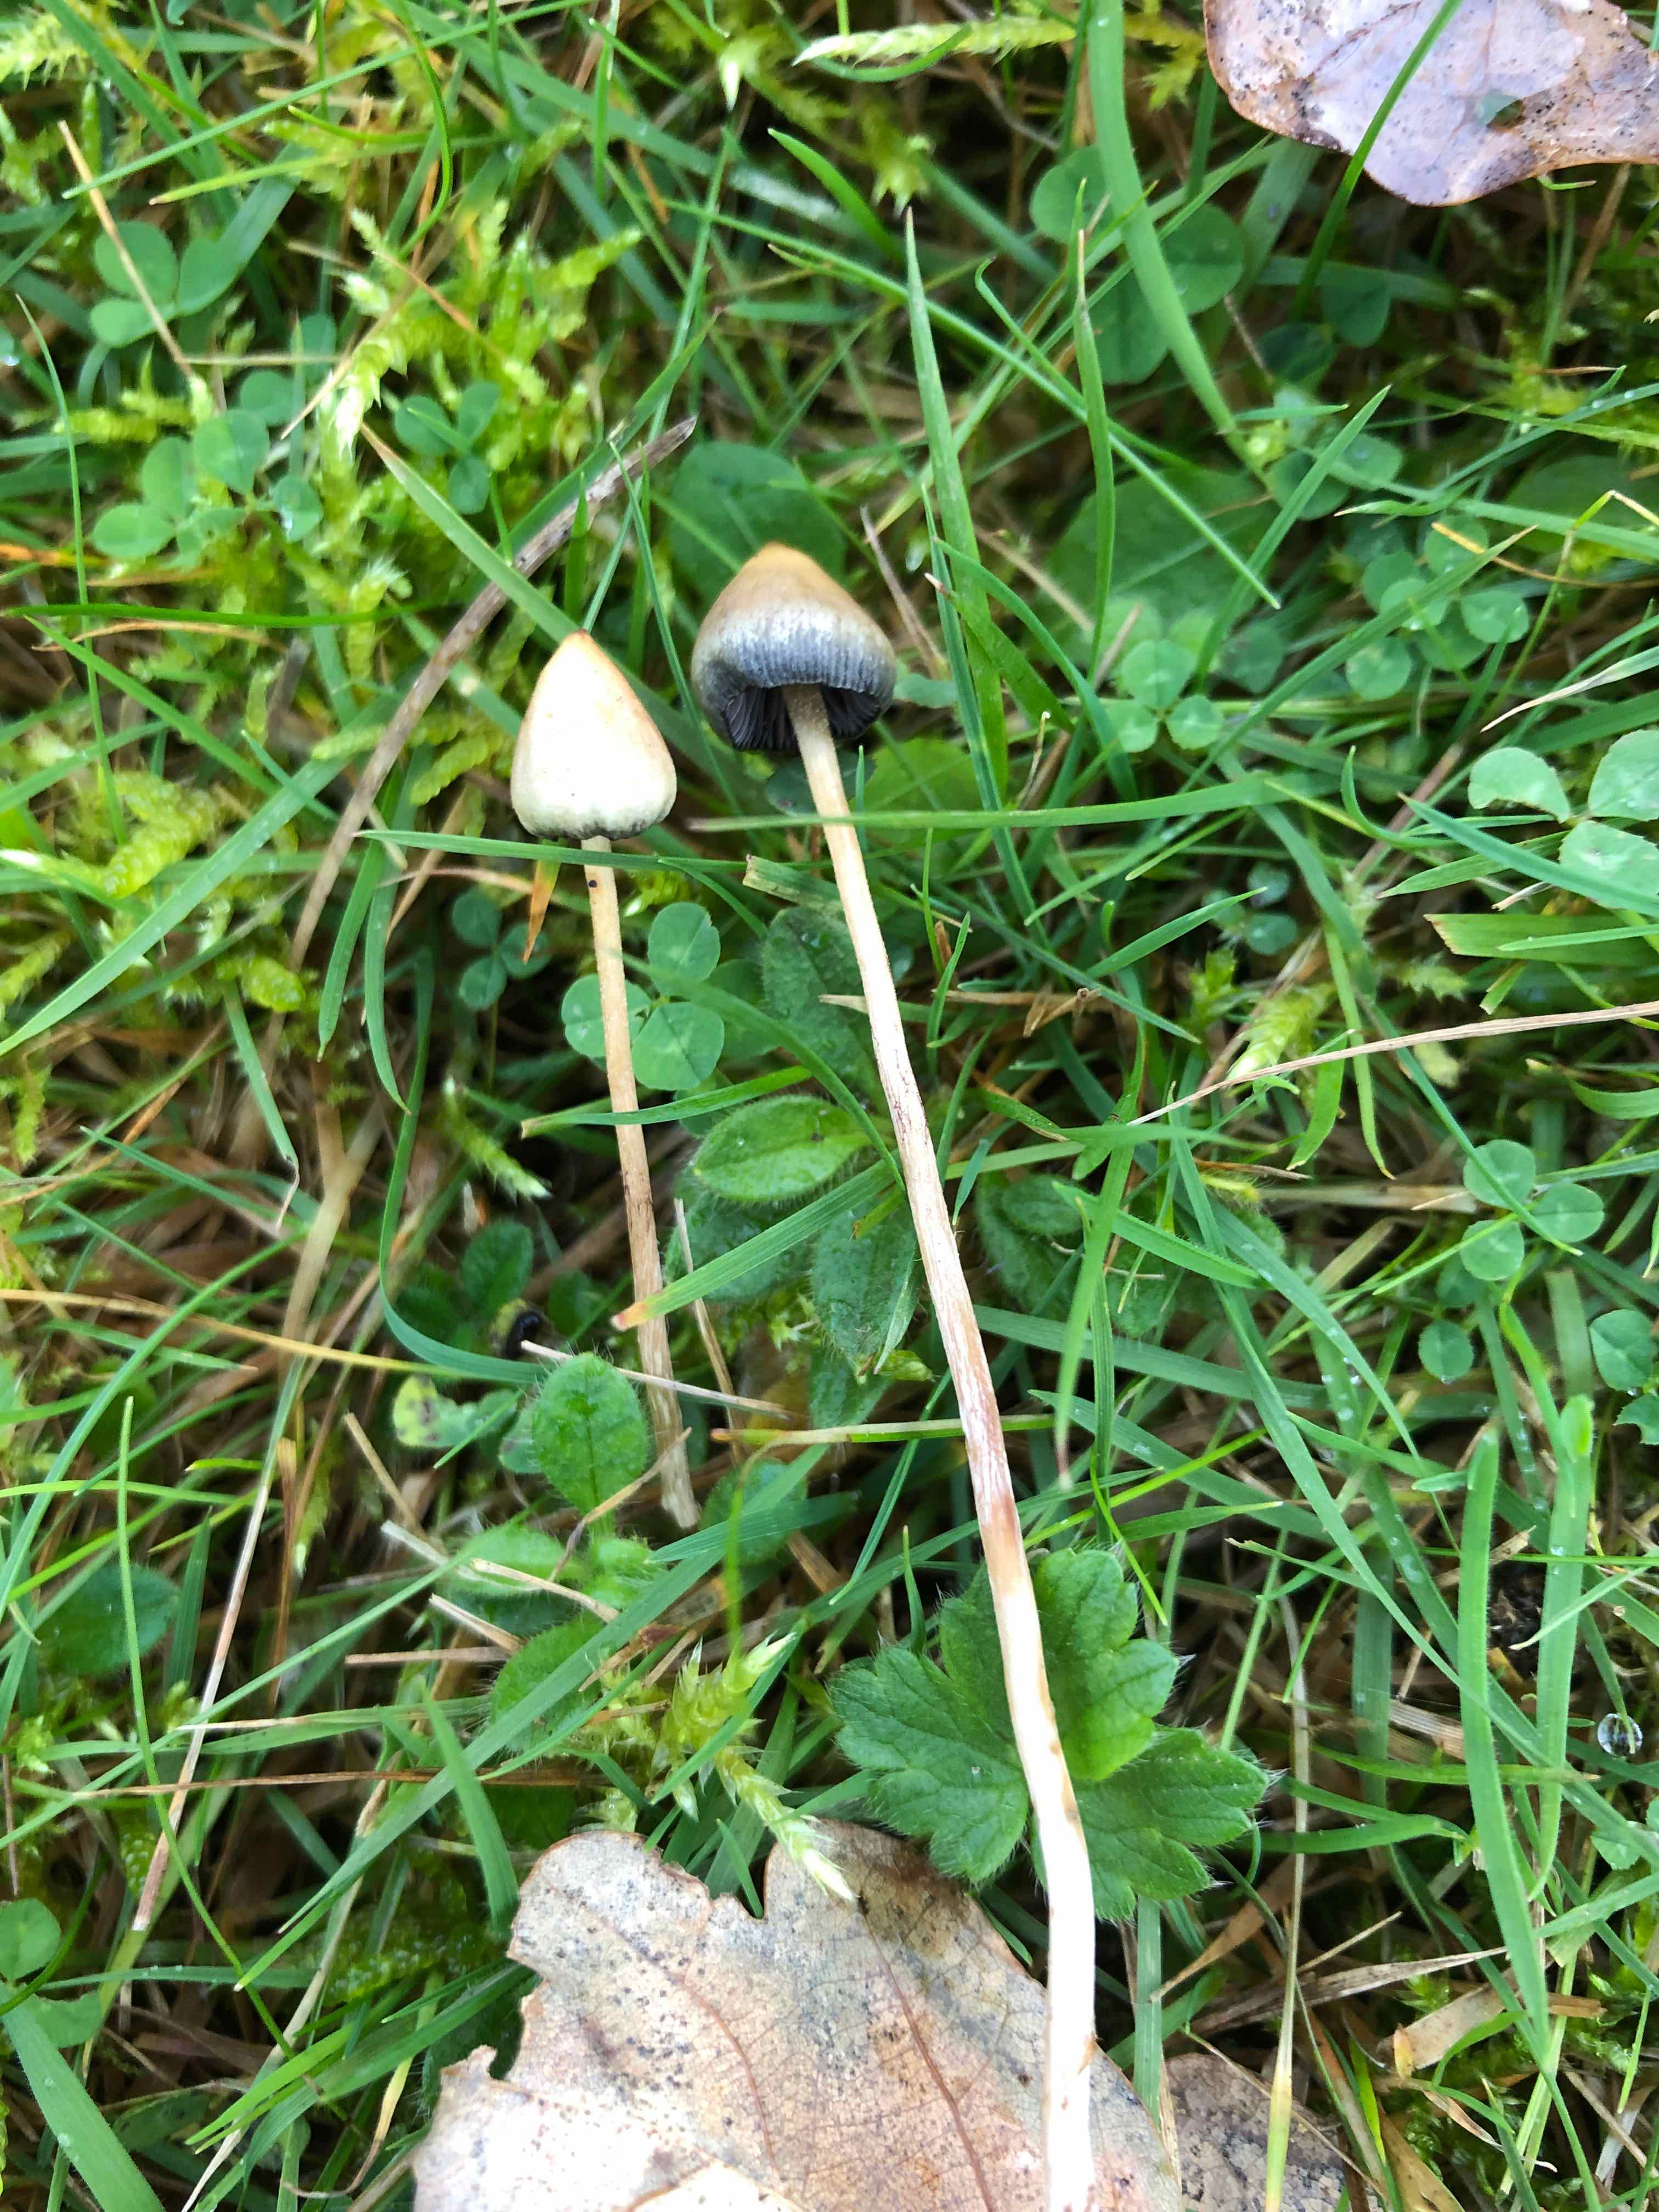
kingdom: Fungi
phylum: Basidiomycota
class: Agaricomycetes
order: Agaricales
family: Hymenogastraceae
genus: Psilocybe
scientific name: Psilocybe semilanceata
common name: spids nøgenhat
